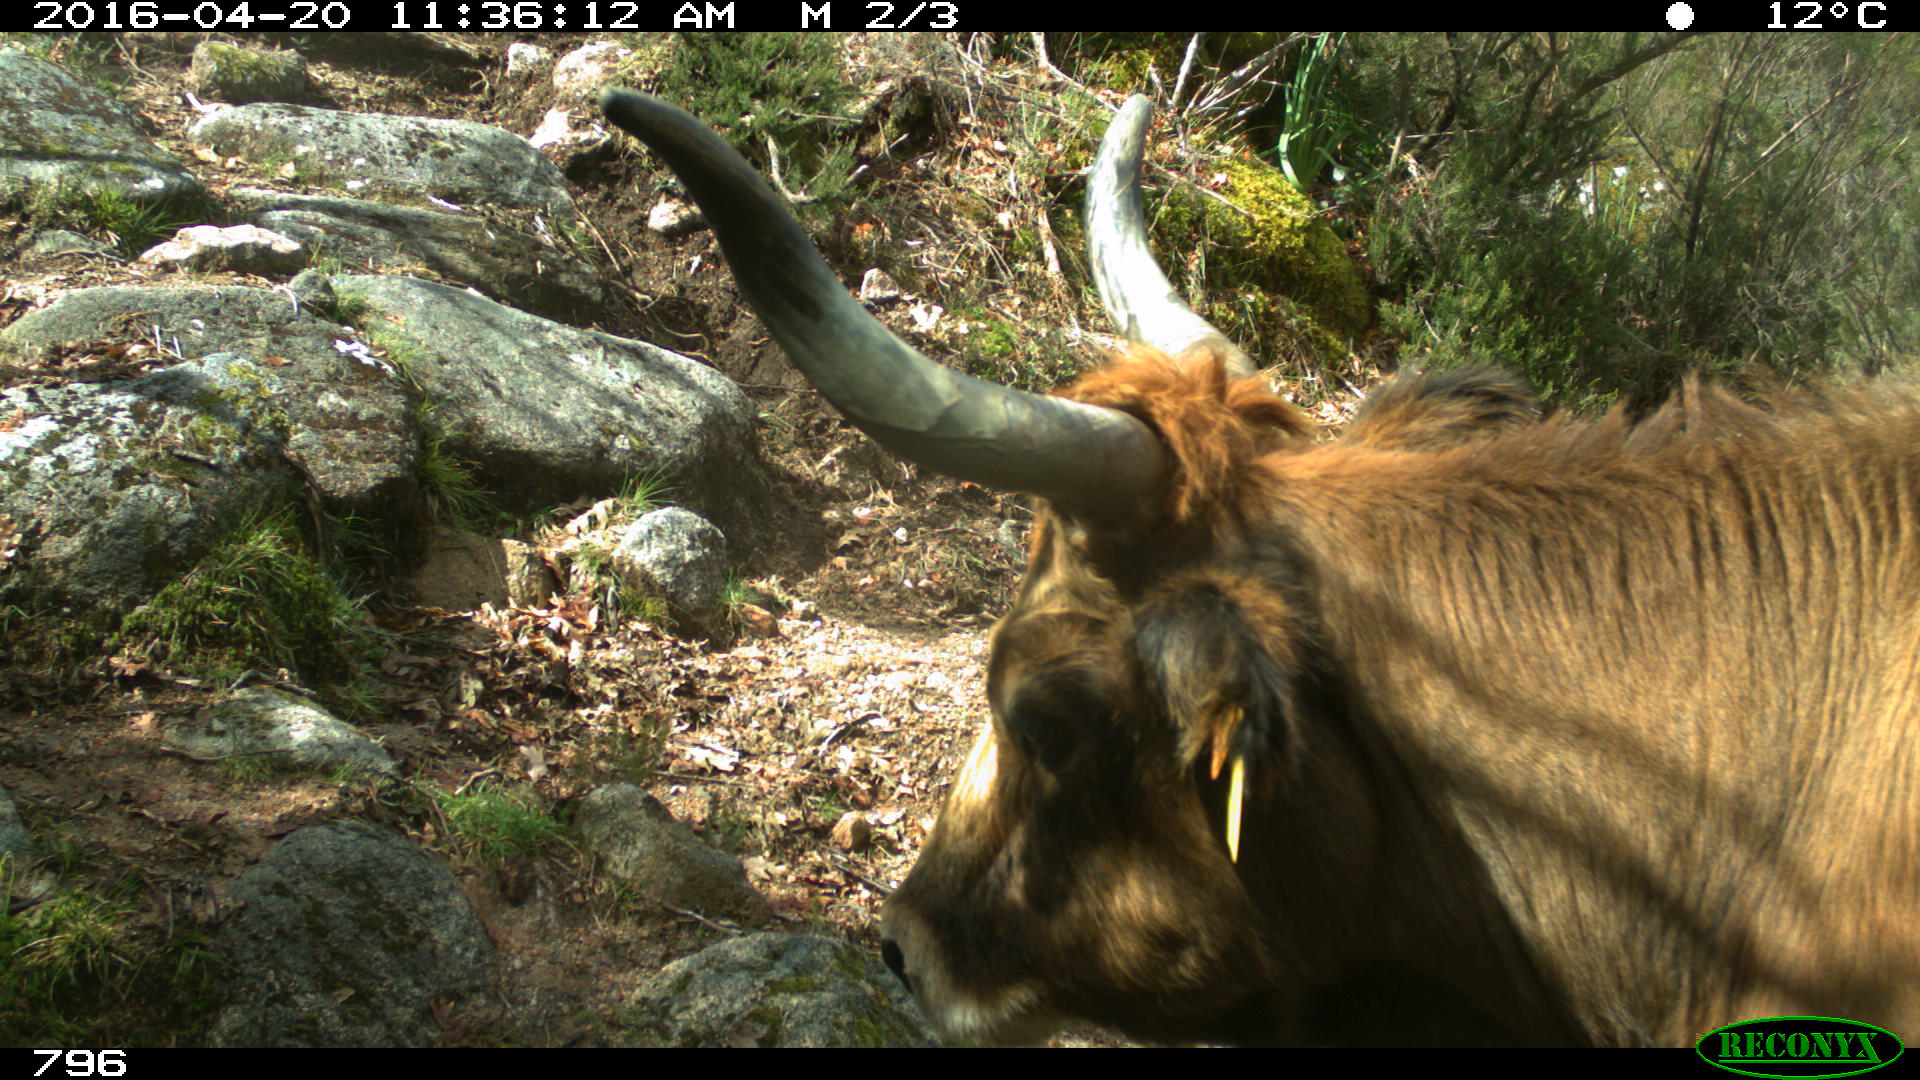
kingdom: Animalia
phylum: Chordata
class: Mammalia
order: Artiodactyla
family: Bovidae
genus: Bos
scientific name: Bos taurus
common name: Domesticated cattle
